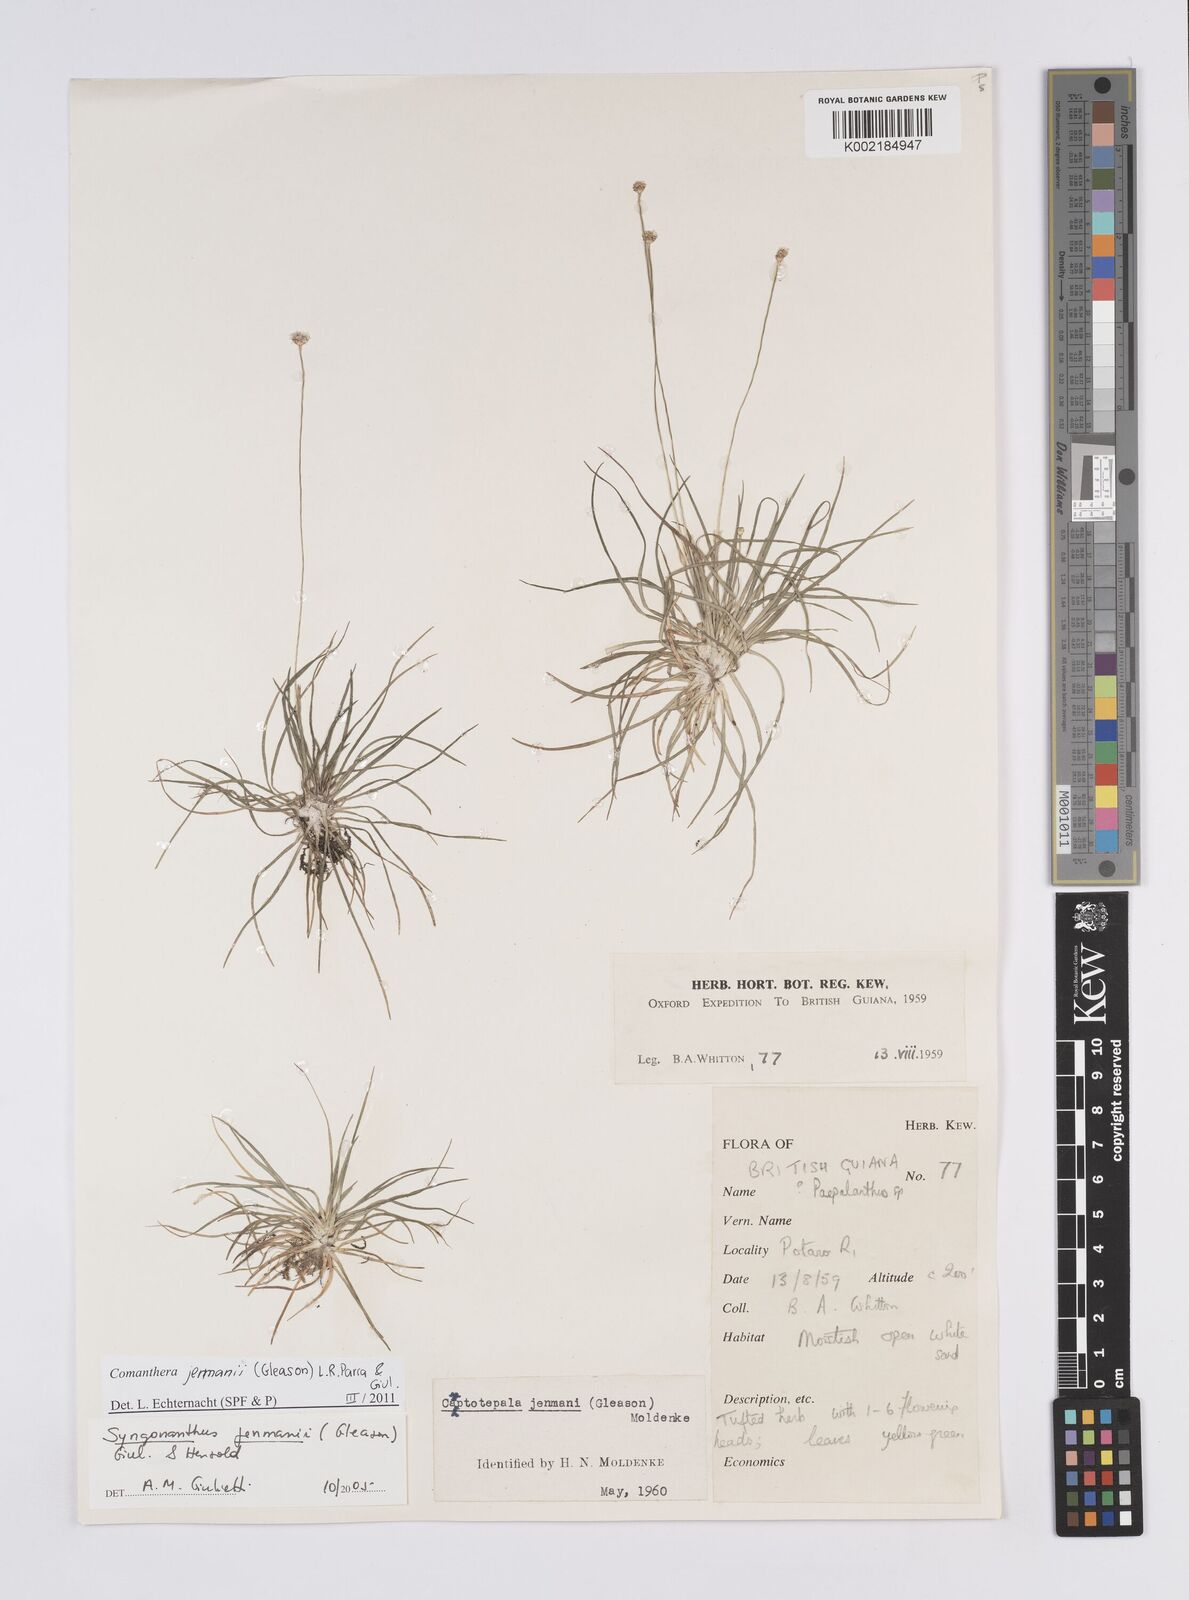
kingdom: Plantae
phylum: Tracheophyta
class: Liliopsida
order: Poales
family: Eriocaulaceae
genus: Comanthera
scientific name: Comanthera jenmanii
